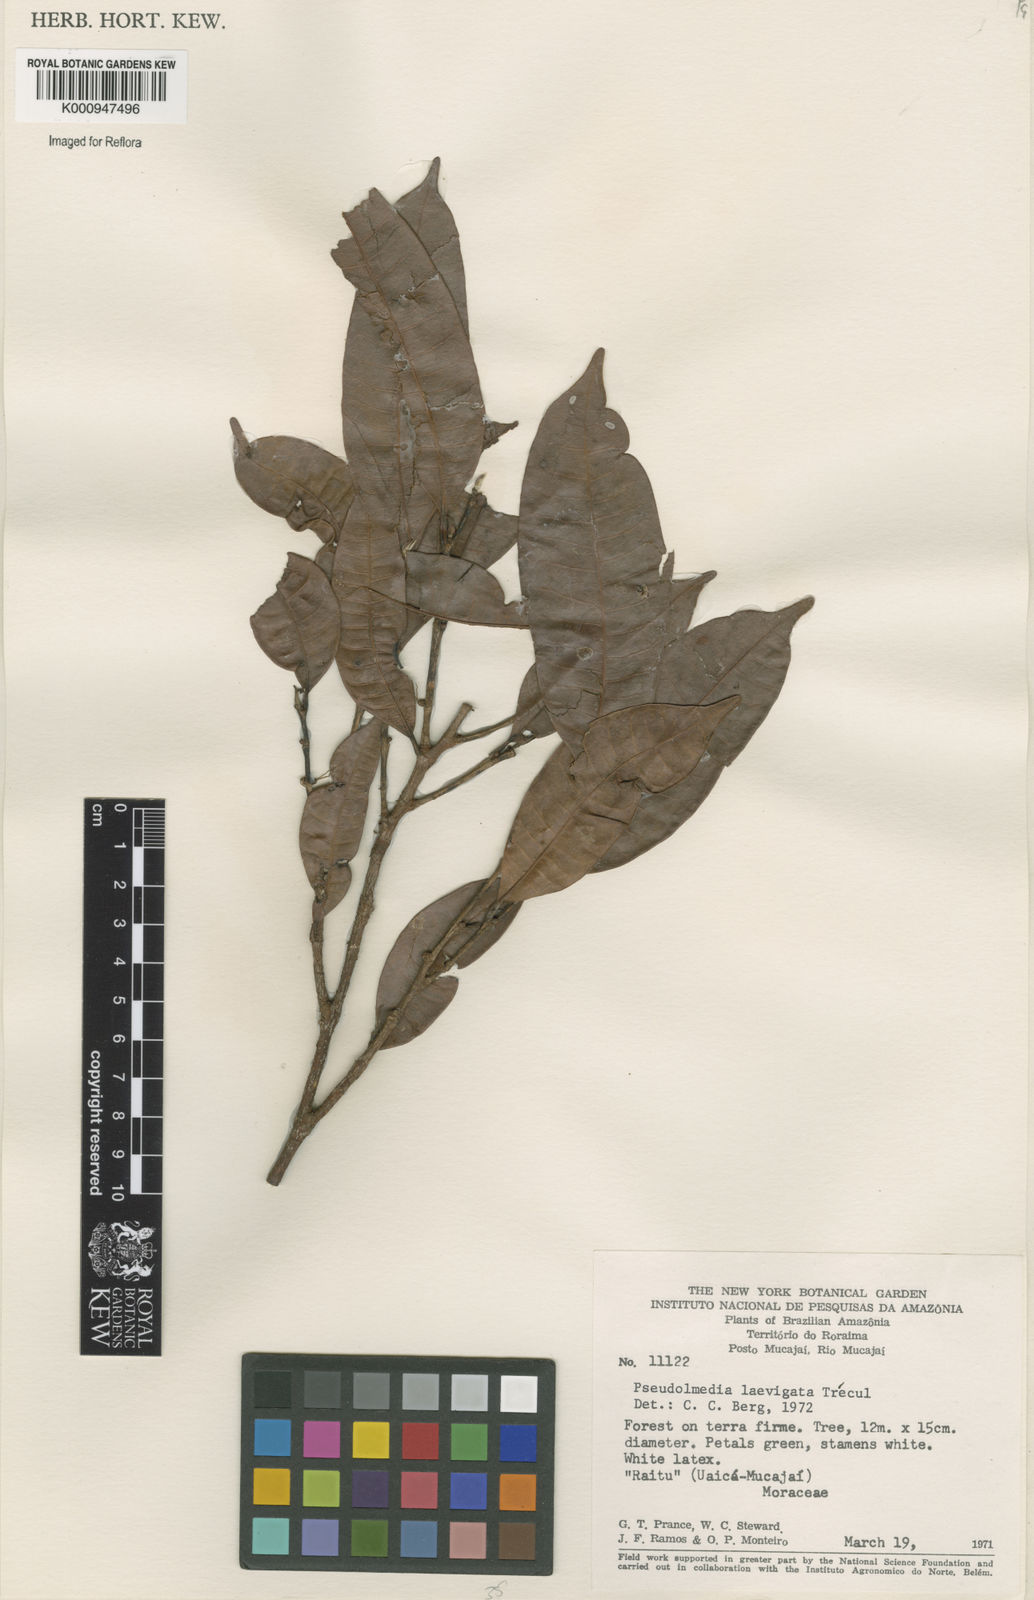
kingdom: Plantae
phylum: Tracheophyta
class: Magnoliopsida
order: Rosales
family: Moraceae
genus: Pseudolmedia
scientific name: Pseudolmedia
